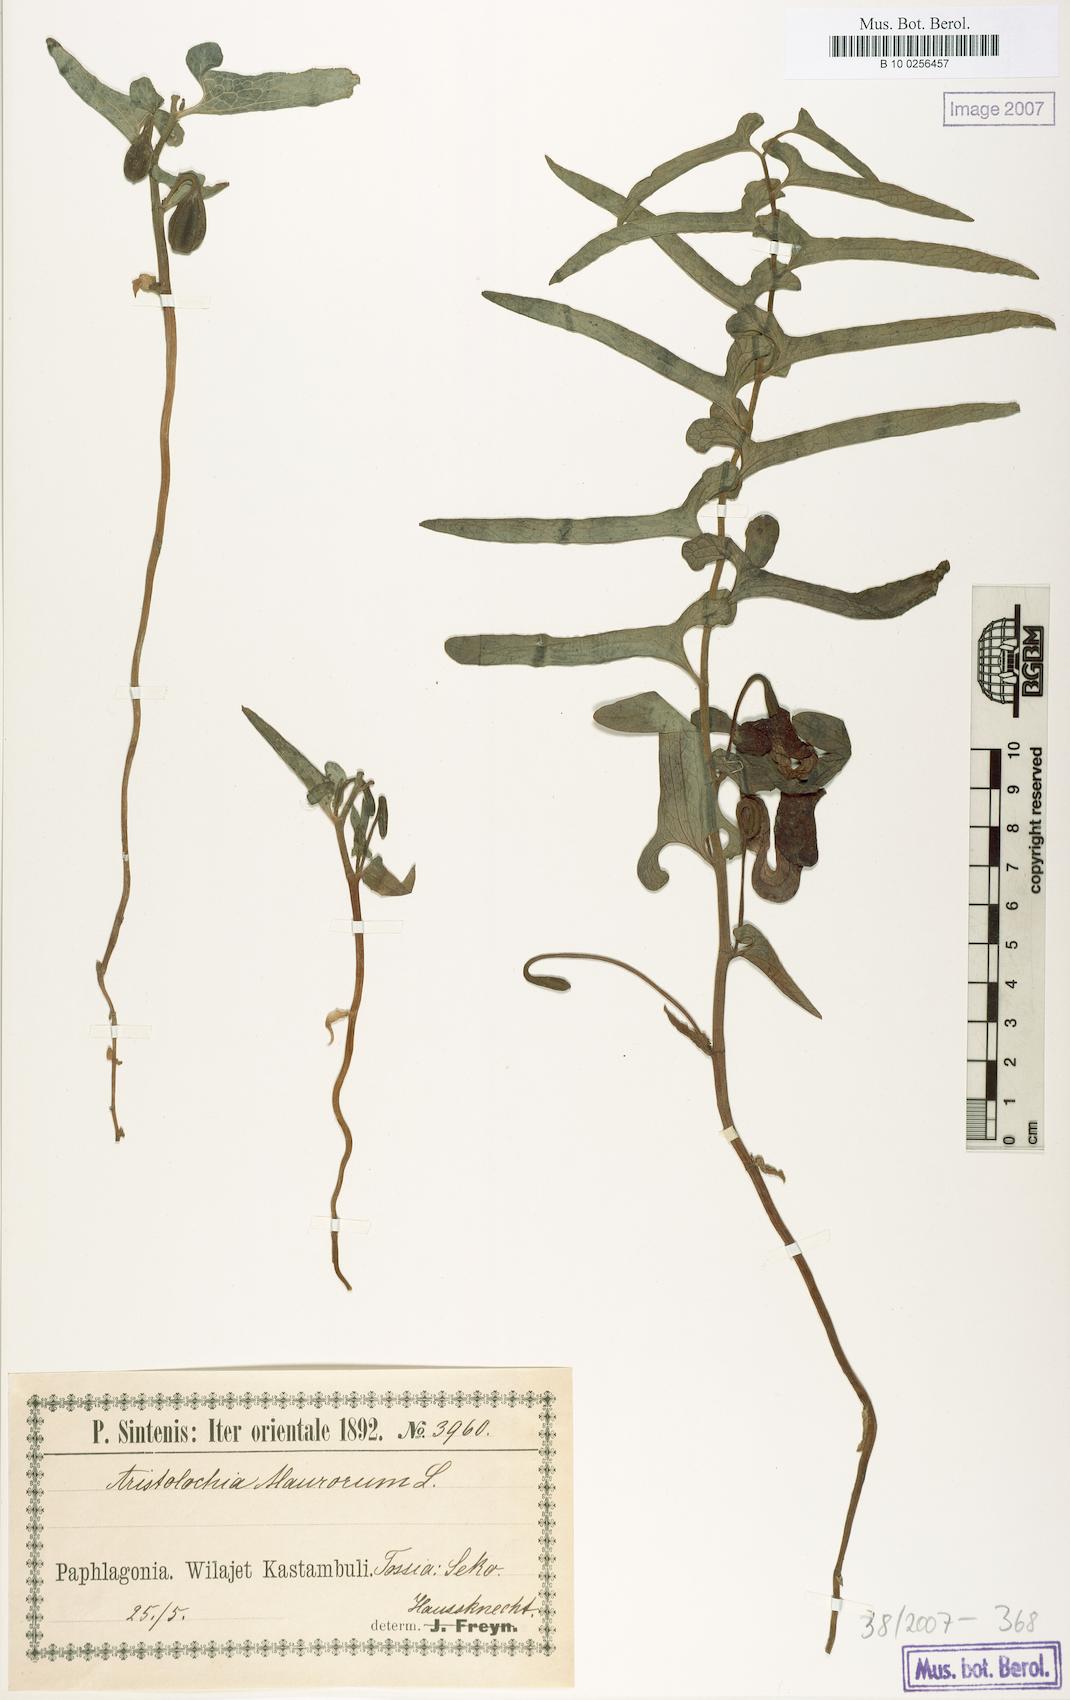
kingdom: Plantae
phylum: Tracheophyta
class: Magnoliopsida
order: Piperales
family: Aristolochiaceae
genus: Aristolochia
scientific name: Aristolochia maurorum
